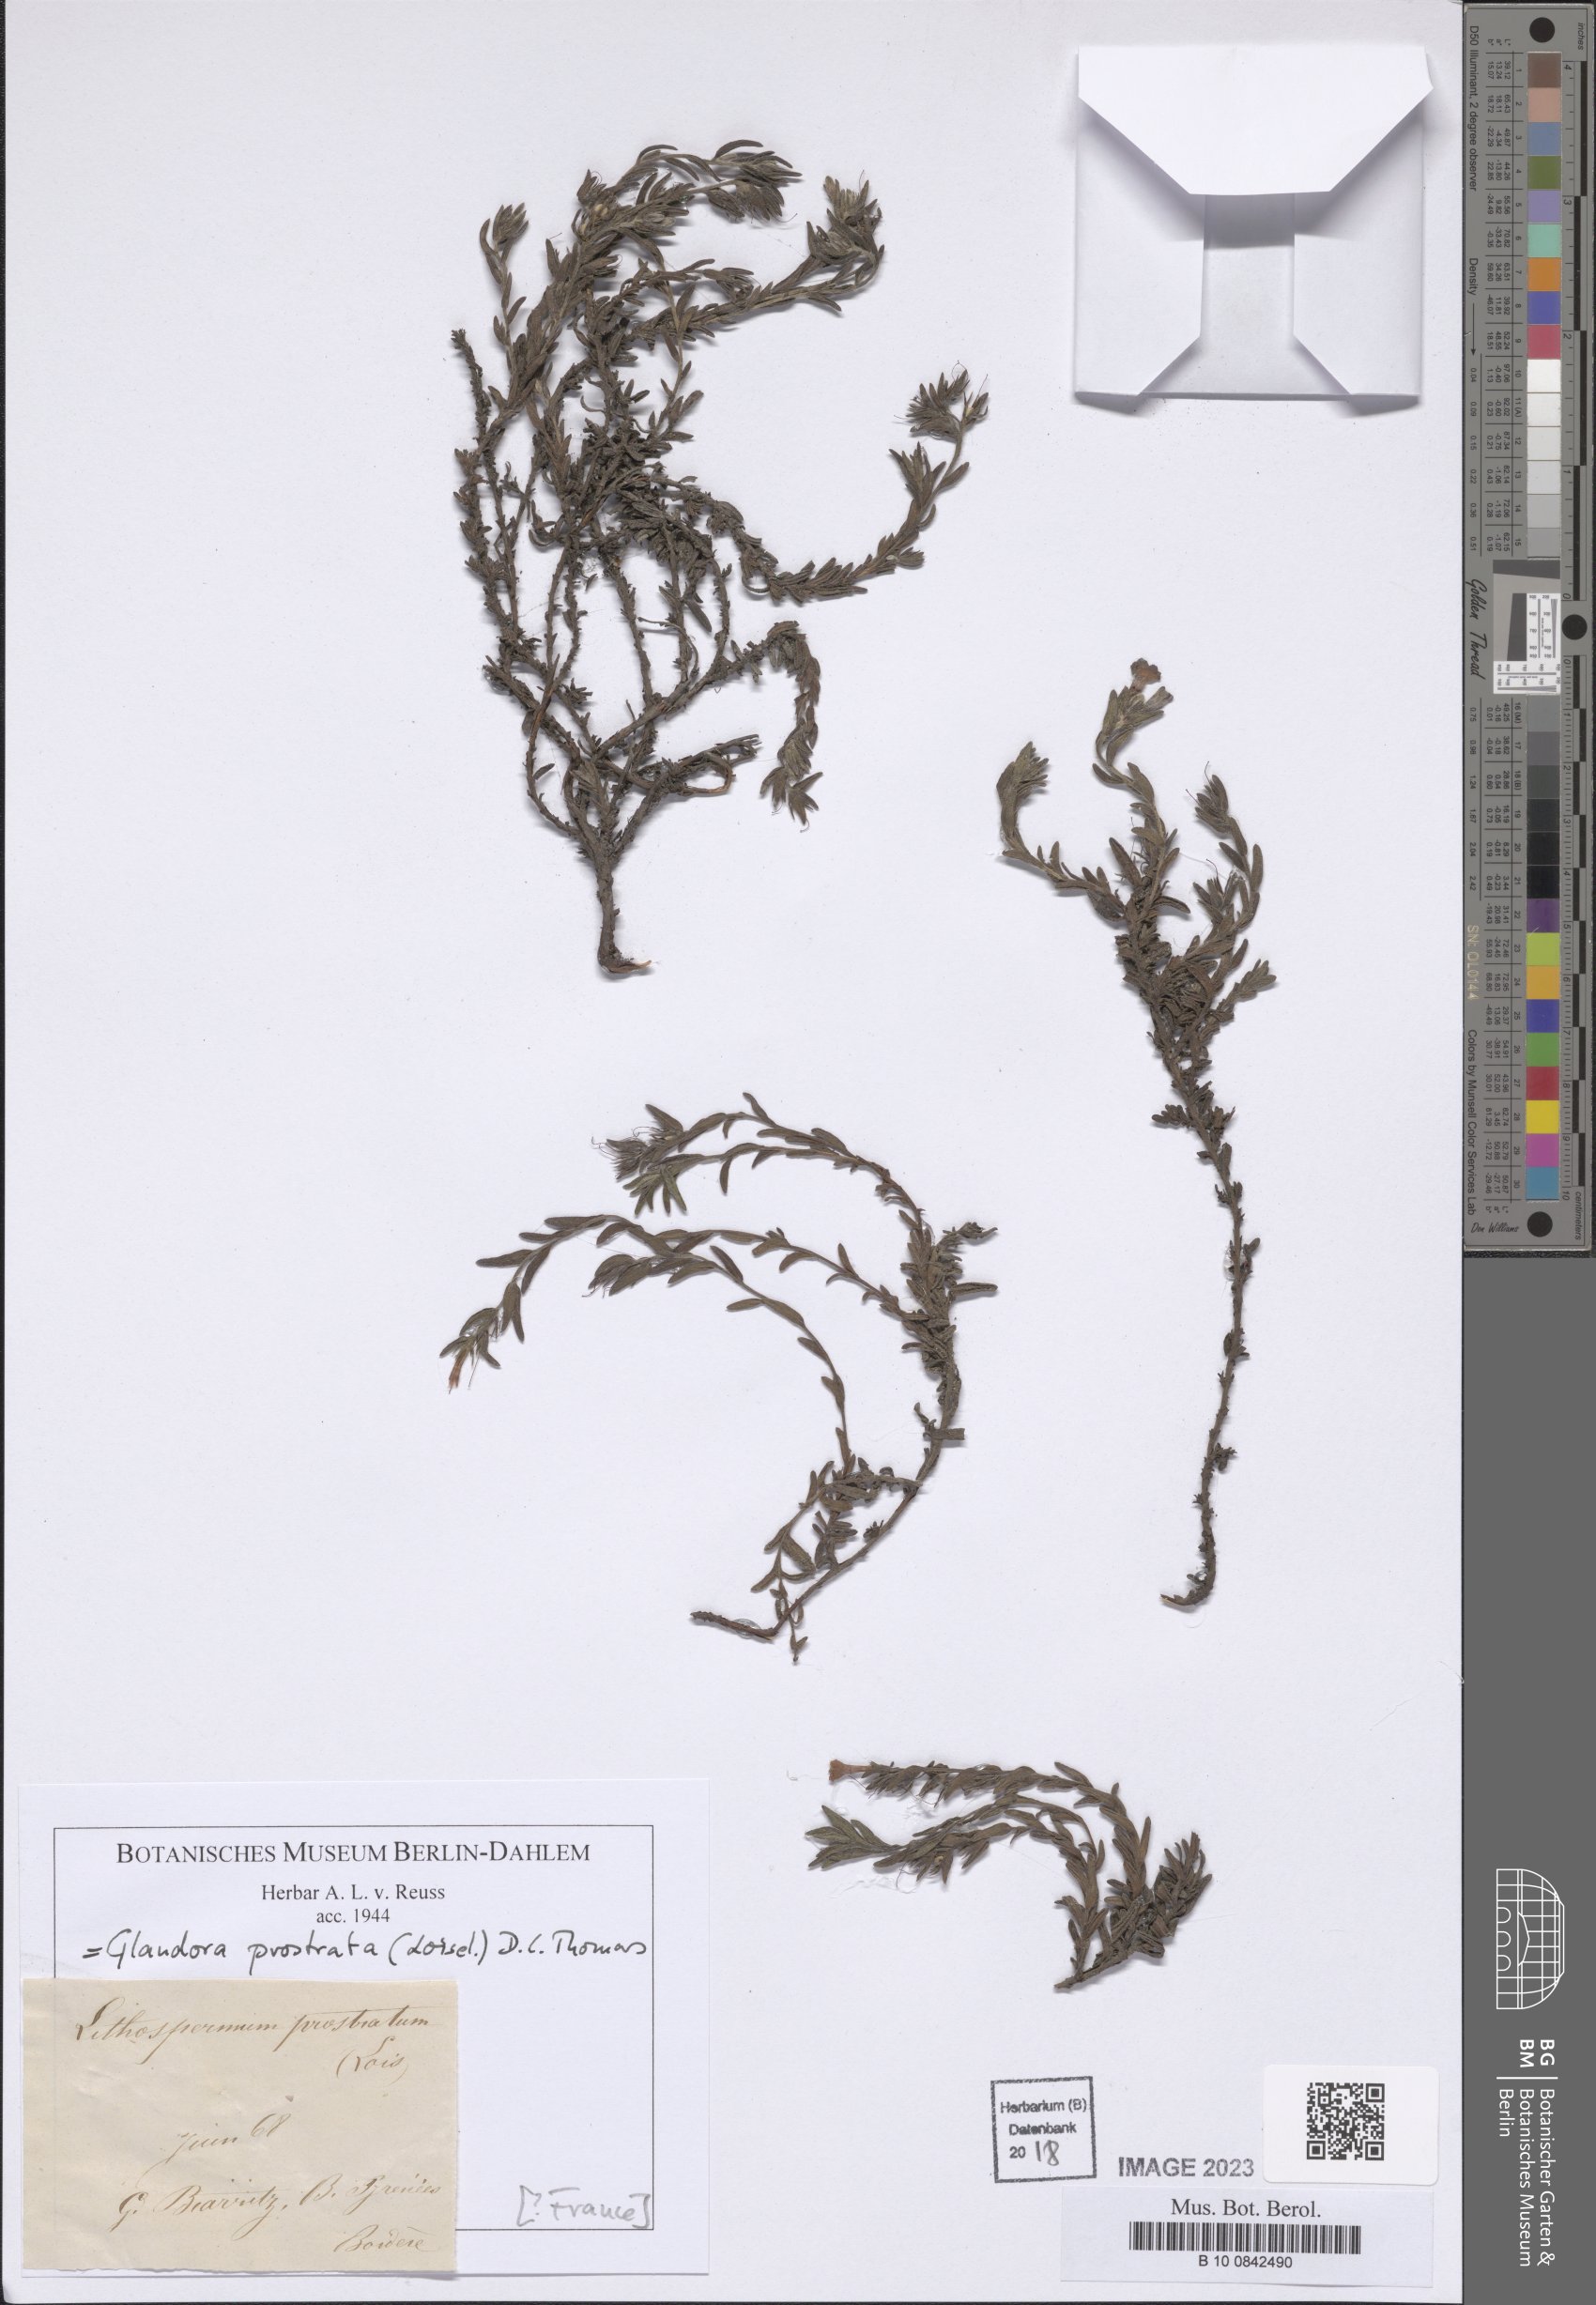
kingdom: Plantae
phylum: Tracheophyta
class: Magnoliopsida
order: Boraginales
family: Boraginaceae
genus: Glandora
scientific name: Glandora prostrata
